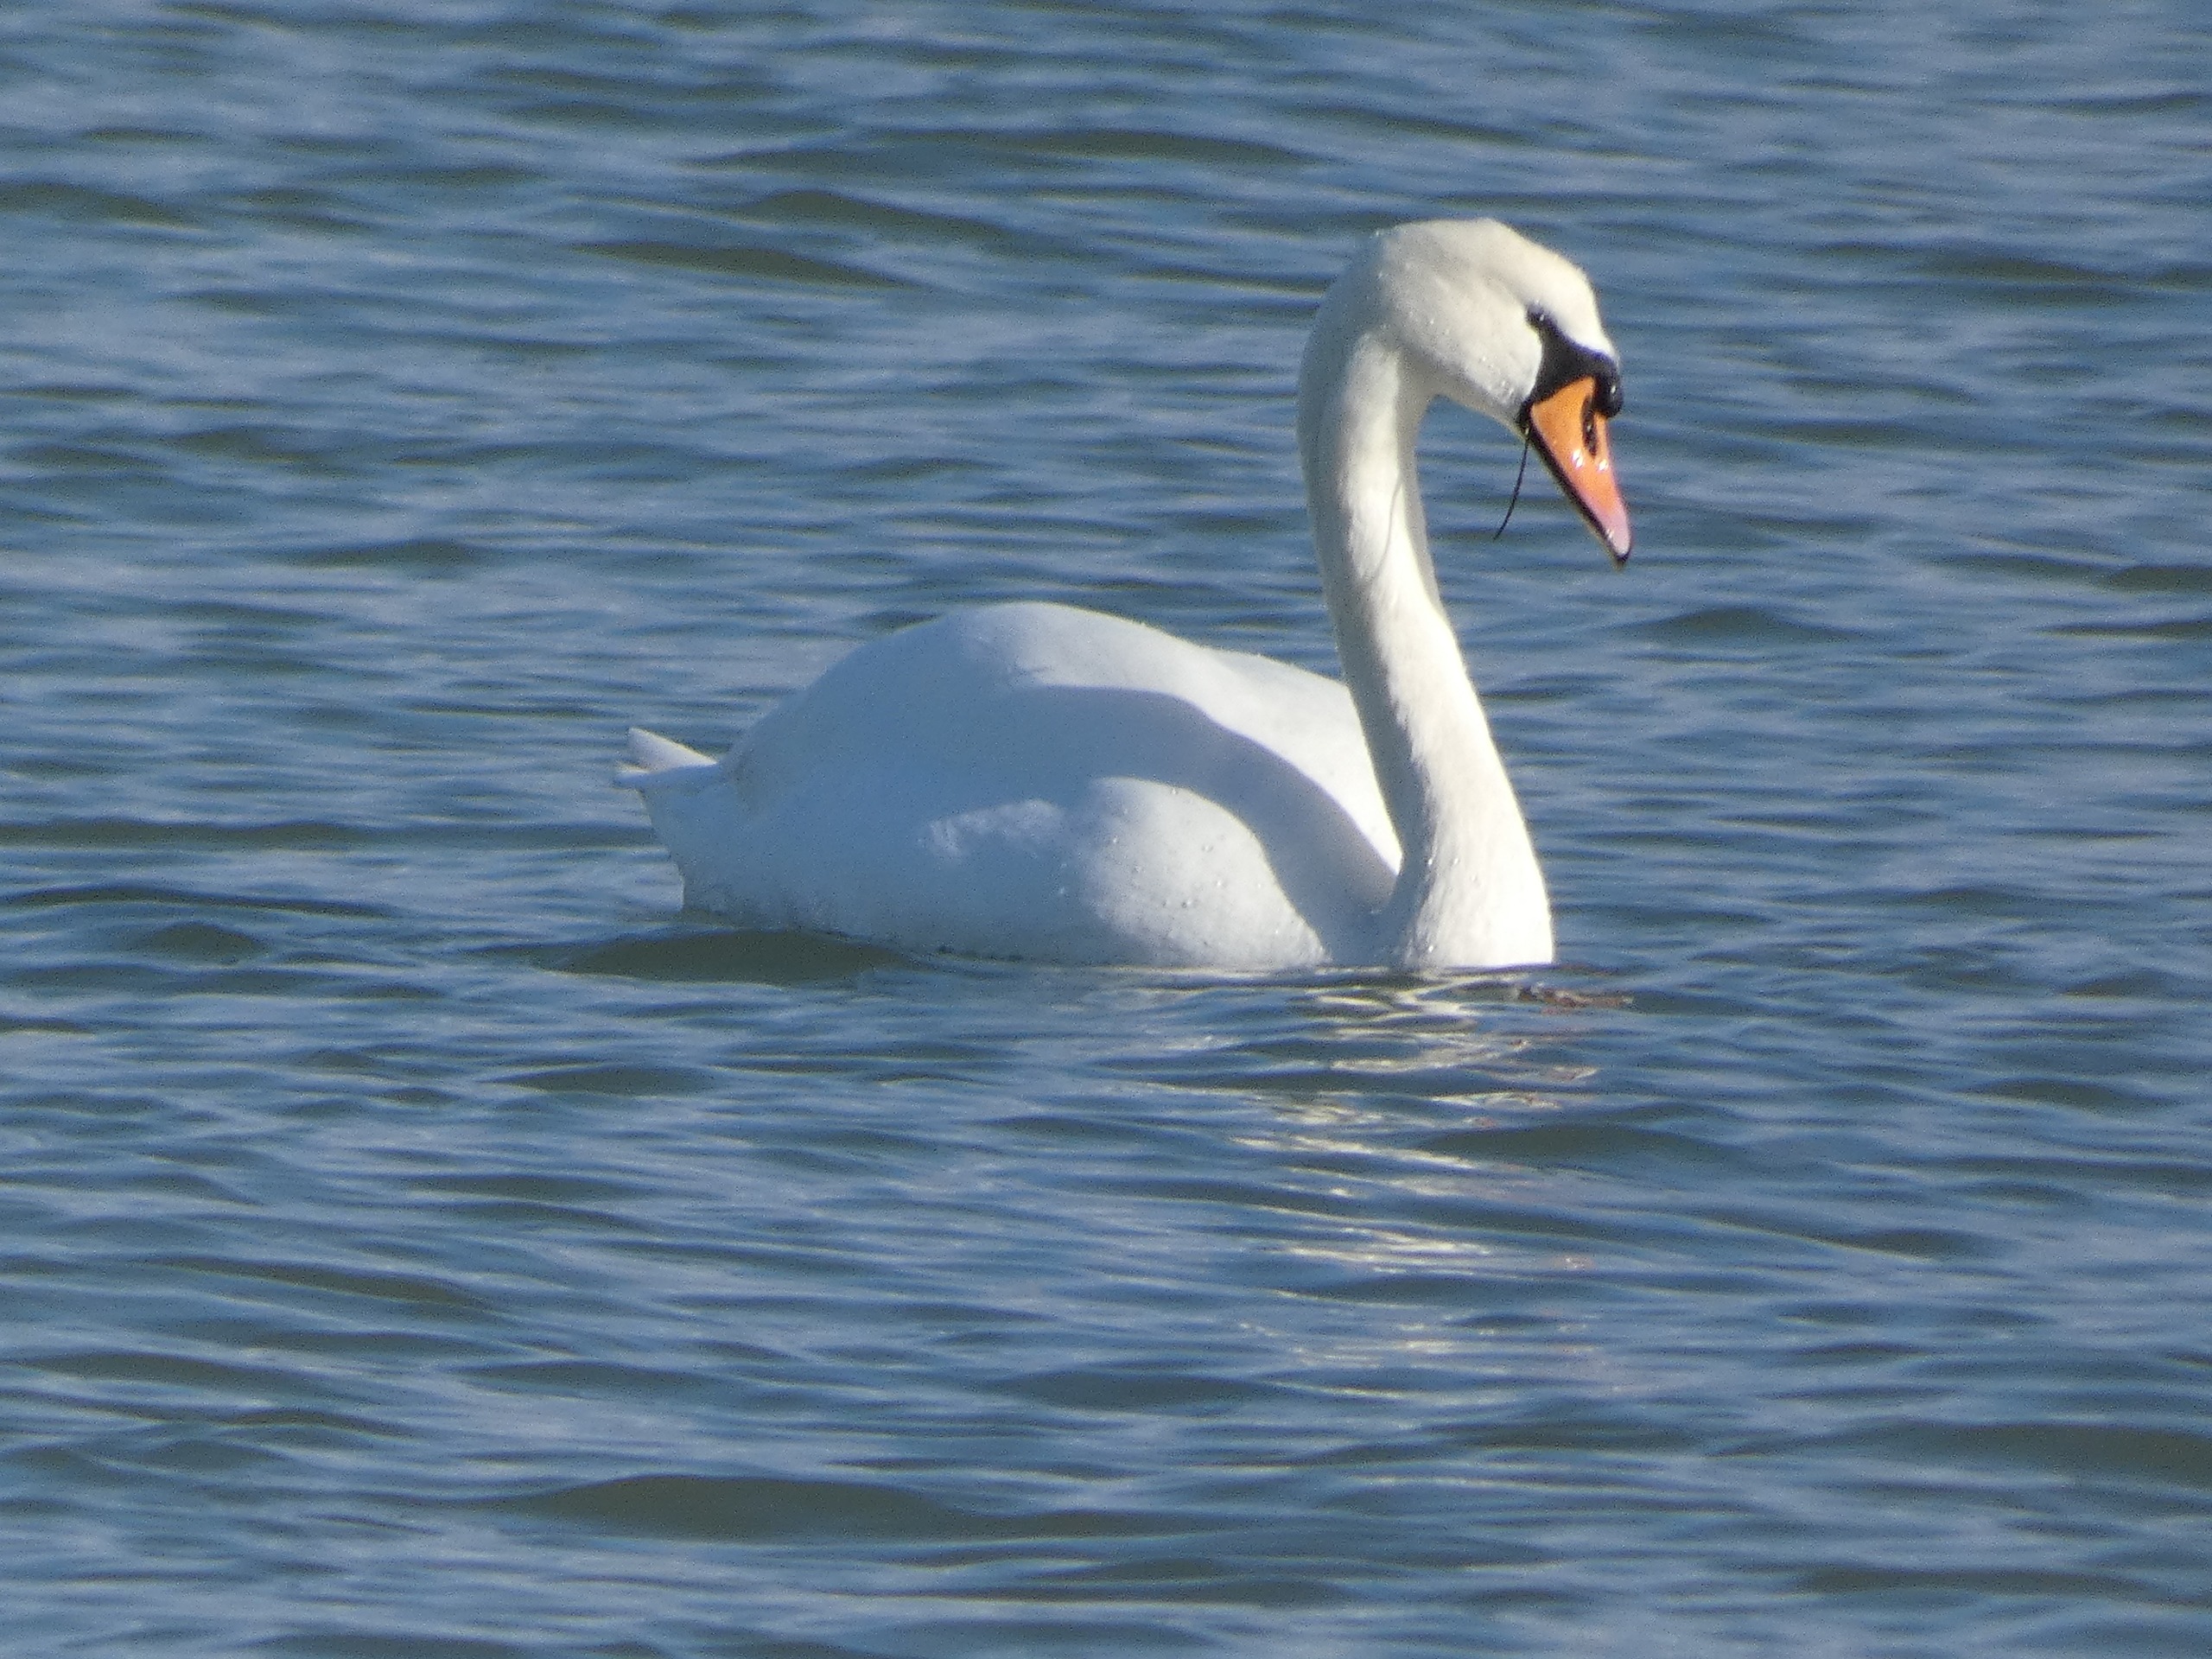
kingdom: Animalia
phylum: Chordata
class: Aves
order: Anseriformes
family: Anatidae
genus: Cygnus
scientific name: Cygnus olor
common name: Knopsvane
